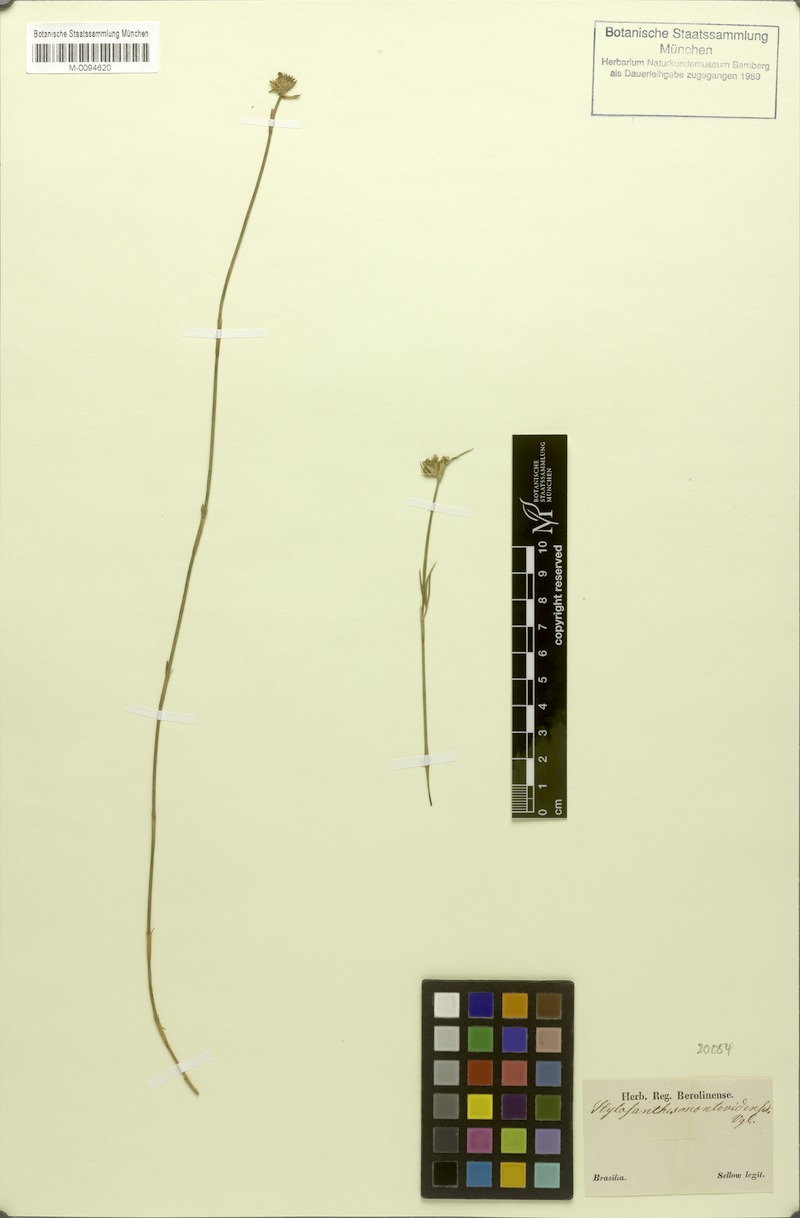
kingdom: Plantae
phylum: Tracheophyta
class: Magnoliopsida
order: Fabales
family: Fabaceae
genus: Stylosanthes
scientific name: Stylosanthes montevidensis
